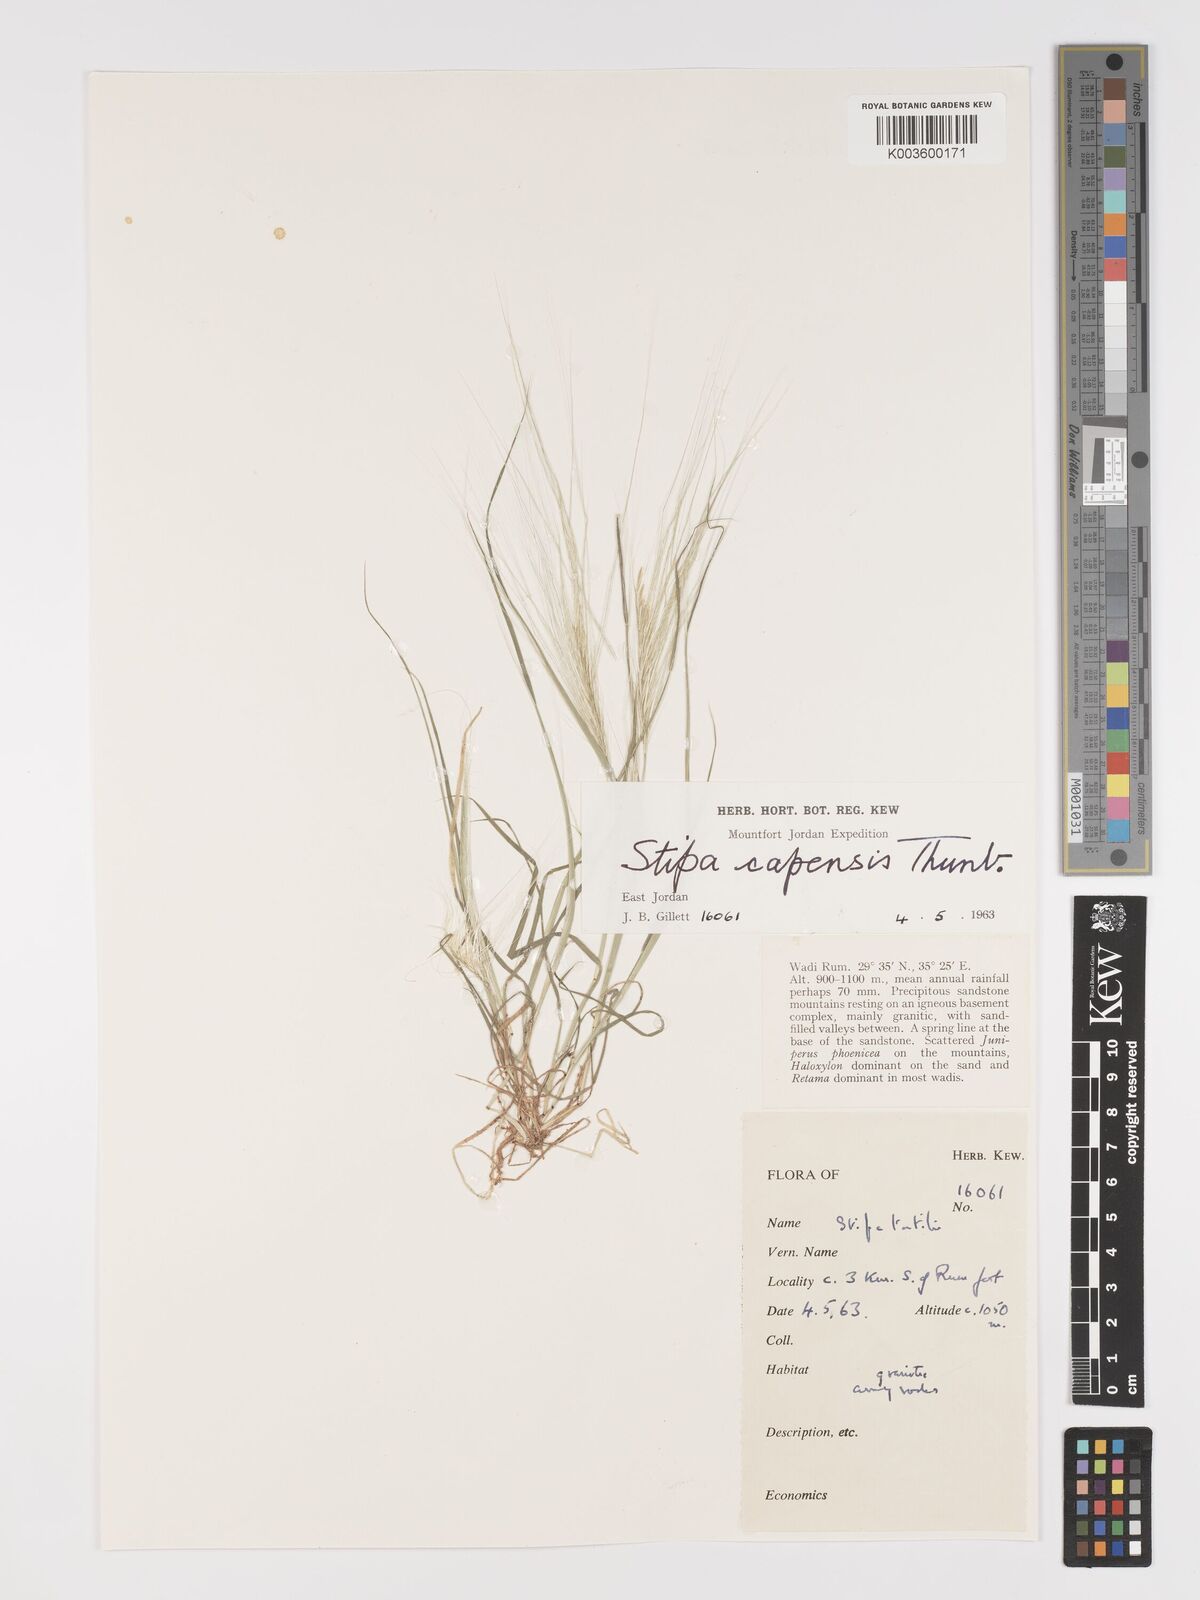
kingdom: Plantae
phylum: Tracheophyta
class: Liliopsida
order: Poales
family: Poaceae
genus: Stipellula
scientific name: Stipellula capensis
